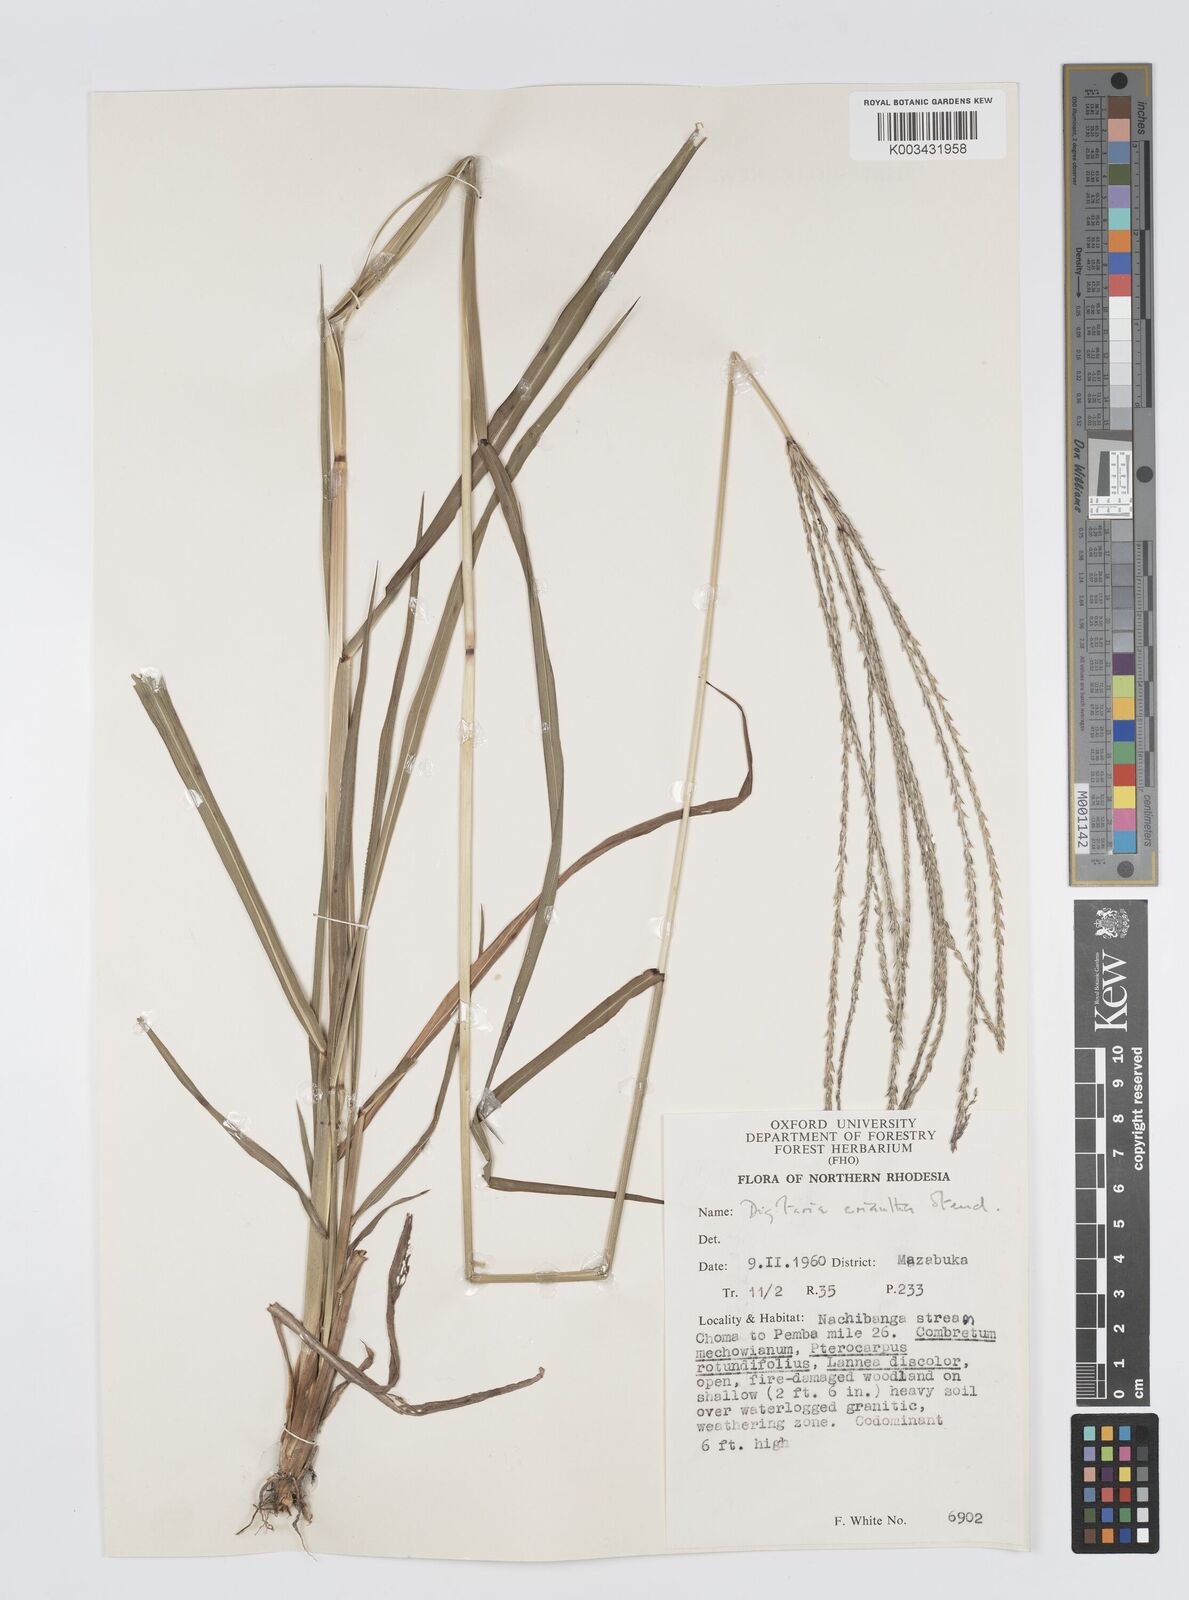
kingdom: Plantae
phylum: Tracheophyta
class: Liliopsida
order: Poales
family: Poaceae
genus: Digitaria
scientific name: Digitaria milanjiana
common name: Madagascar crabgrass
